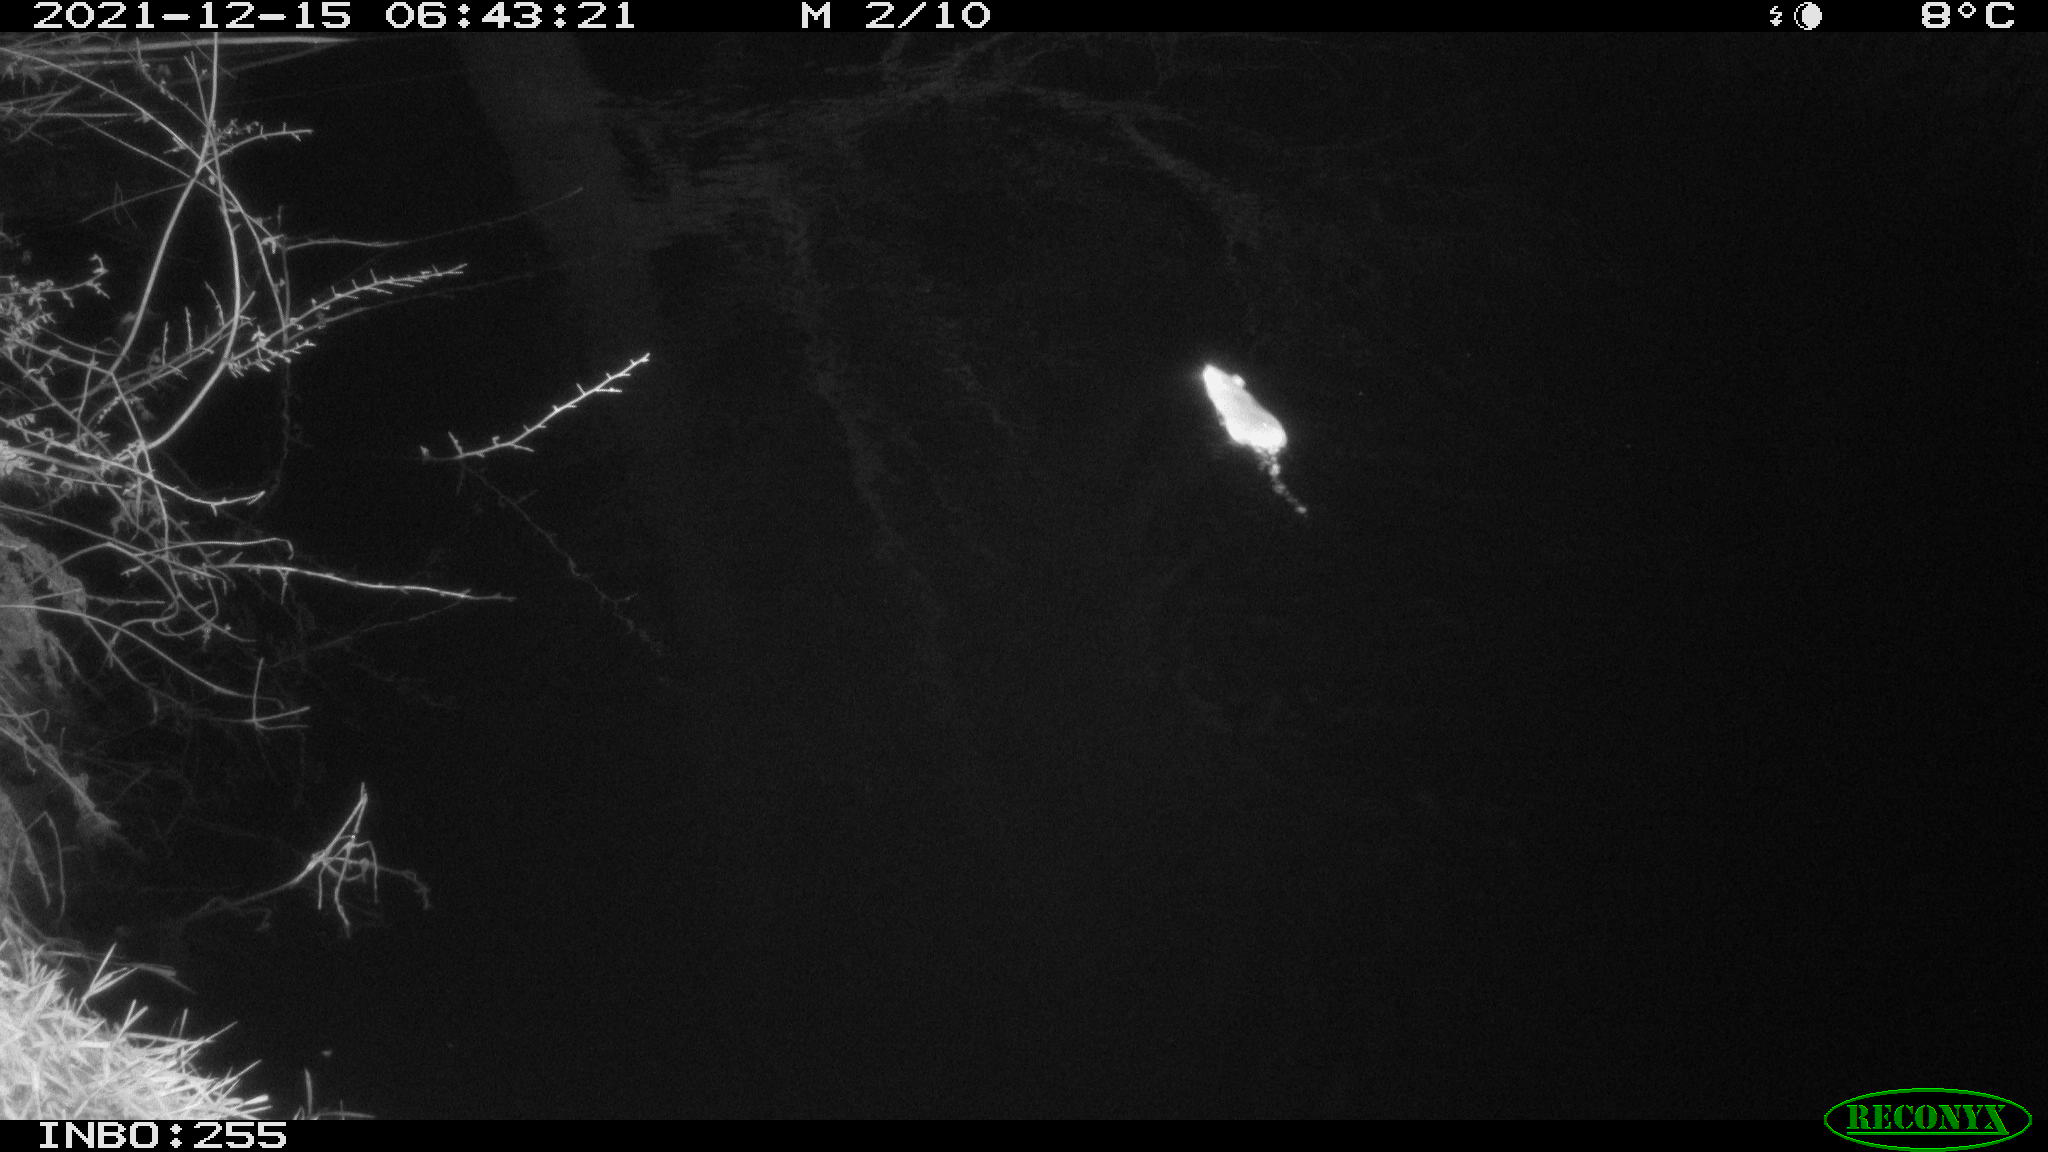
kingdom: Animalia
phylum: Chordata
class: Mammalia
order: Rodentia
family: Muridae
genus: Rattus
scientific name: Rattus norvegicus
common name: Brown rat
